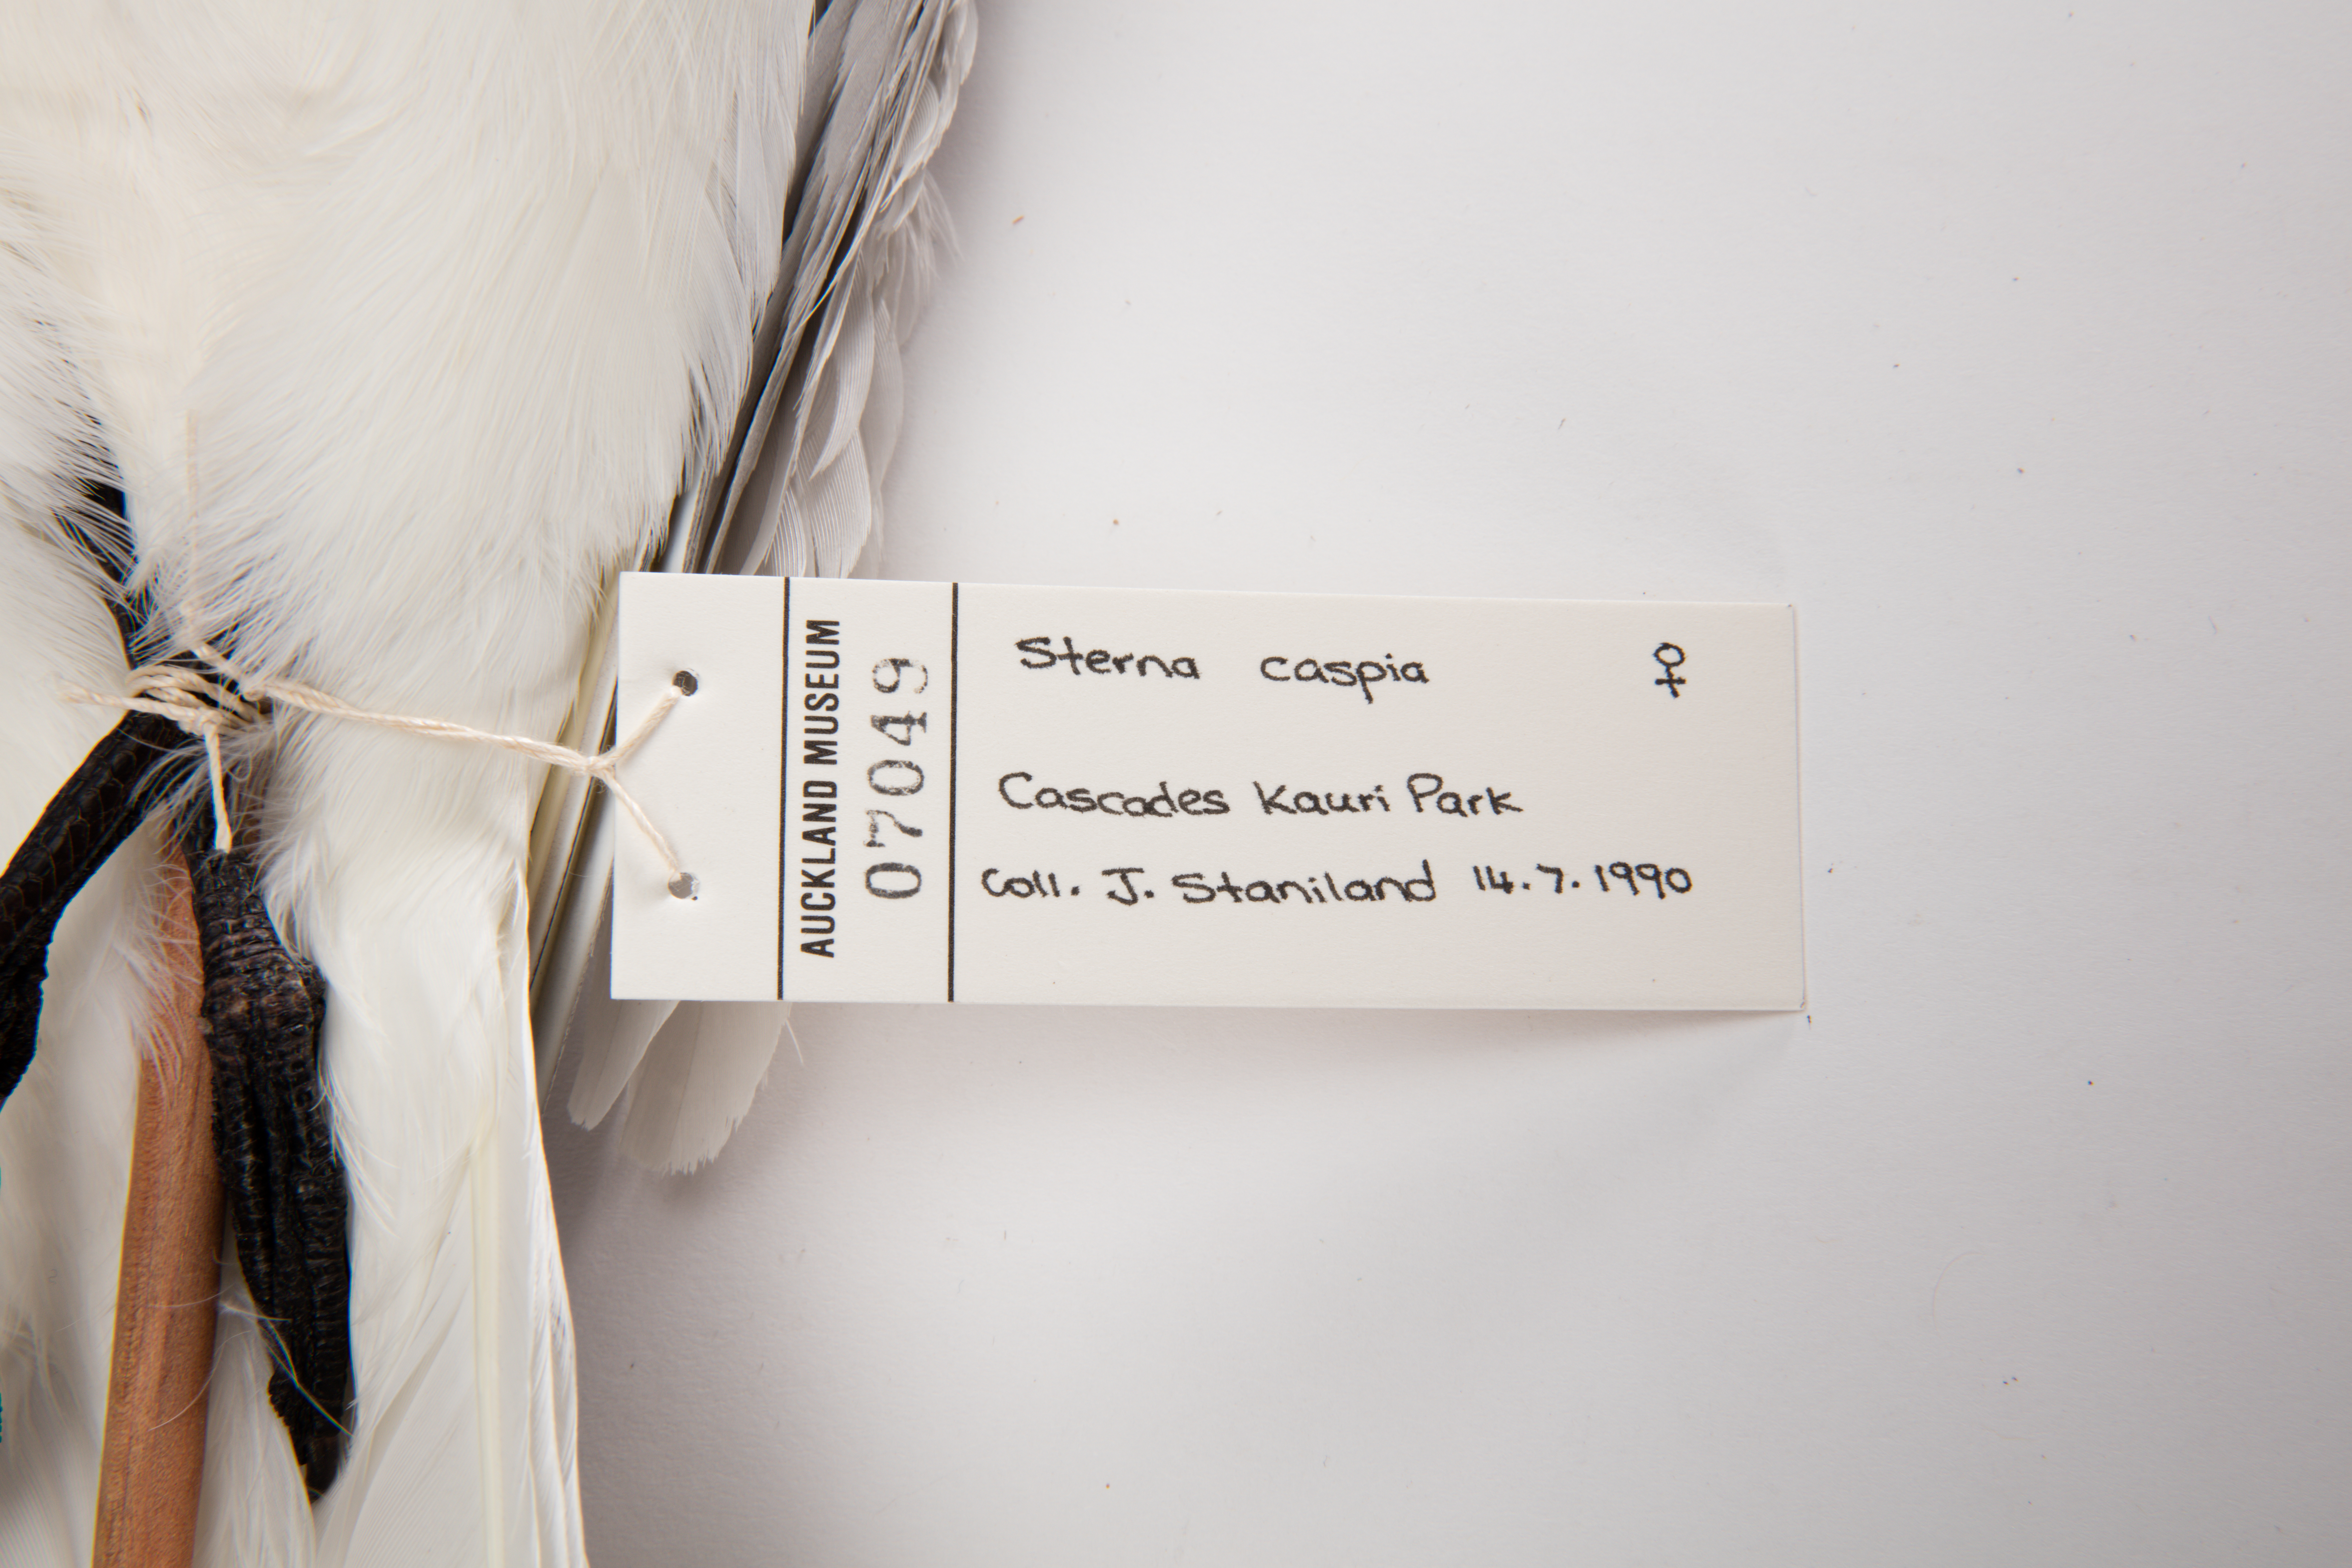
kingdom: Animalia
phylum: Chordata
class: Aves
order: Charadriiformes
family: Laridae
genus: Hydroprogne
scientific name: Hydroprogne caspia
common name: Caspian tern
